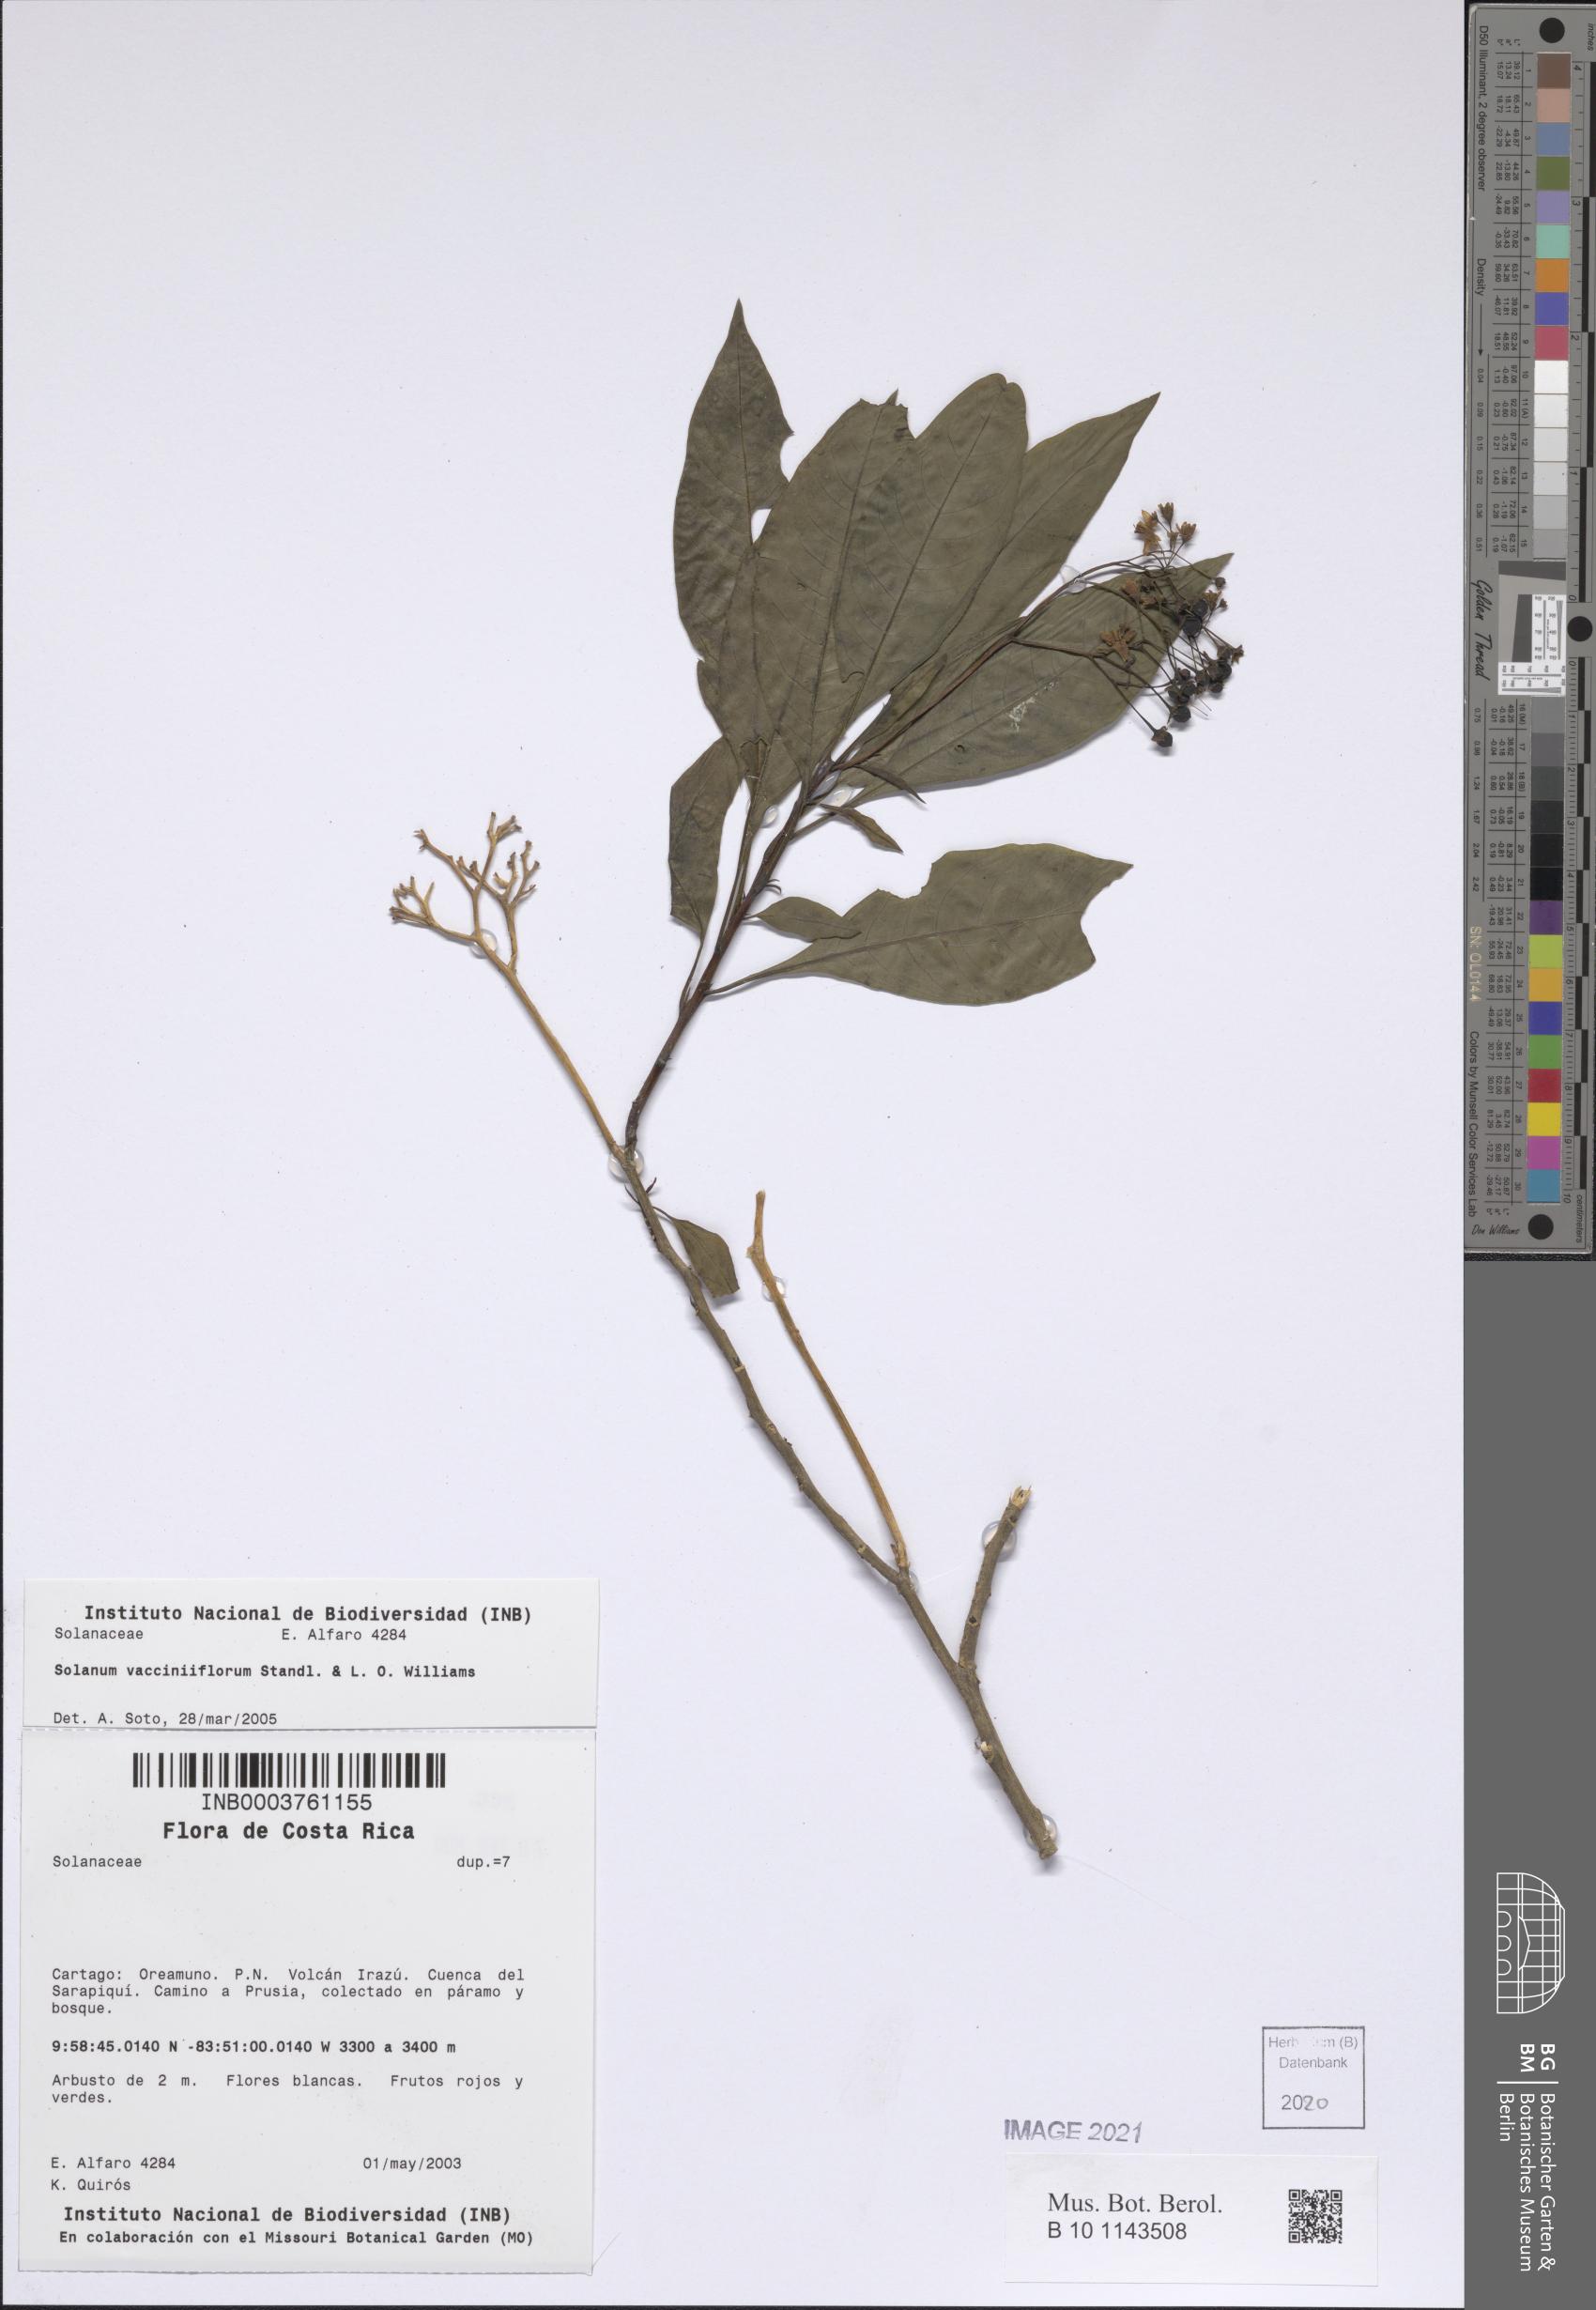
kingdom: Plantae
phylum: Tracheophyta
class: Magnoliopsida
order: Solanales
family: Solanaceae
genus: Solanum
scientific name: Solanum vacciniiflorum
